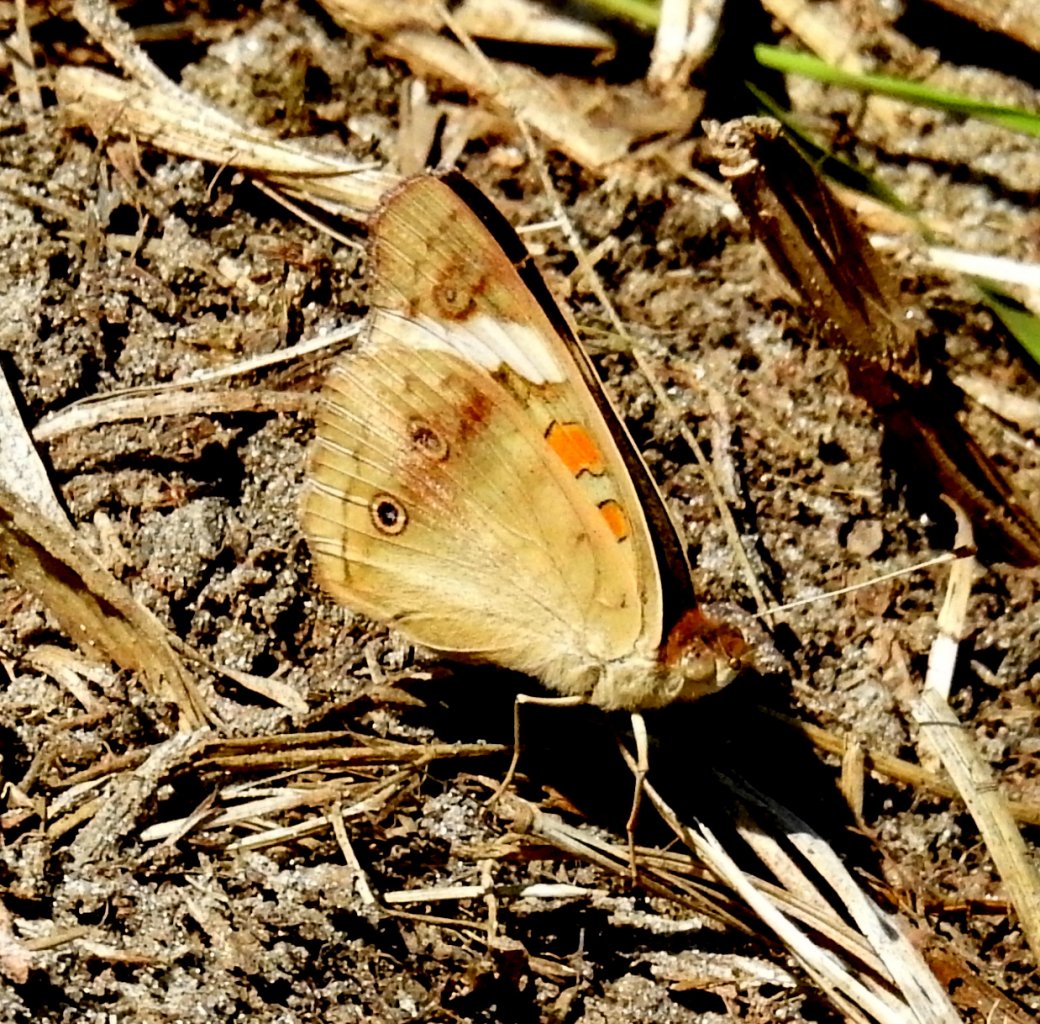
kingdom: Animalia
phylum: Arthropoda
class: Insecta
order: Lepidoptera
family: Nymphalidae
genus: Junonia
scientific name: Junonia coenia
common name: Common Buckeye
